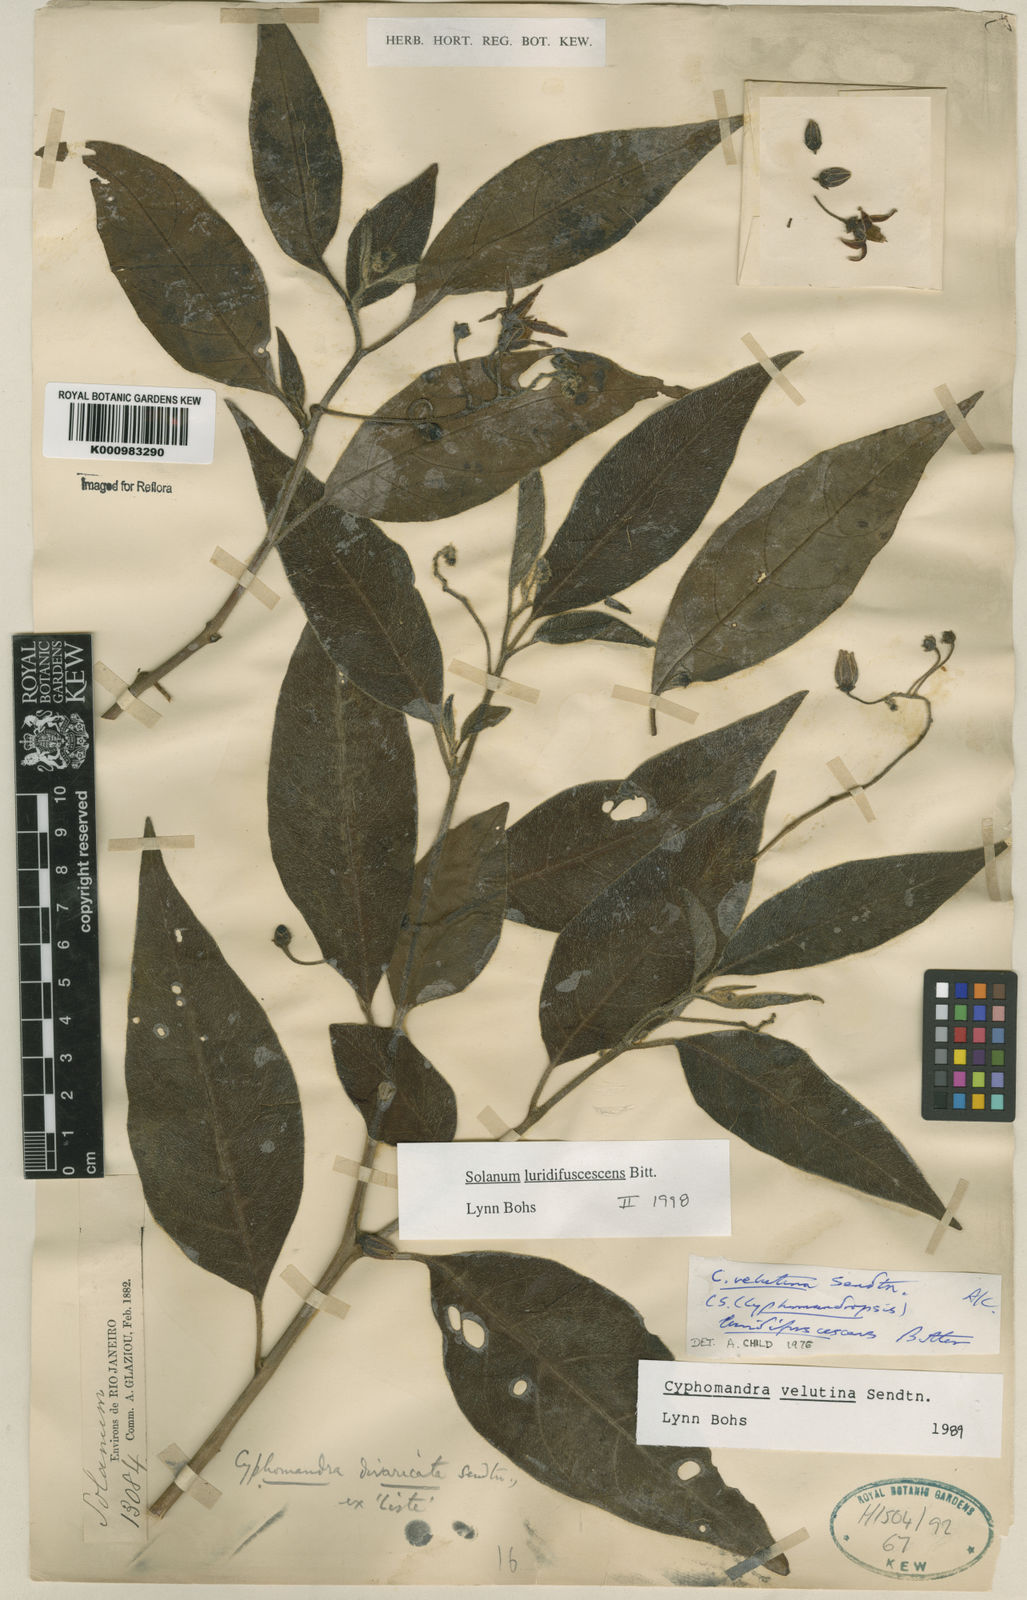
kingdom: Plantae
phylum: Tracheophyta
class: Magnoliopsida
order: Solanales
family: Solanaceae
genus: Solanum
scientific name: Solanum luridifuscescens
